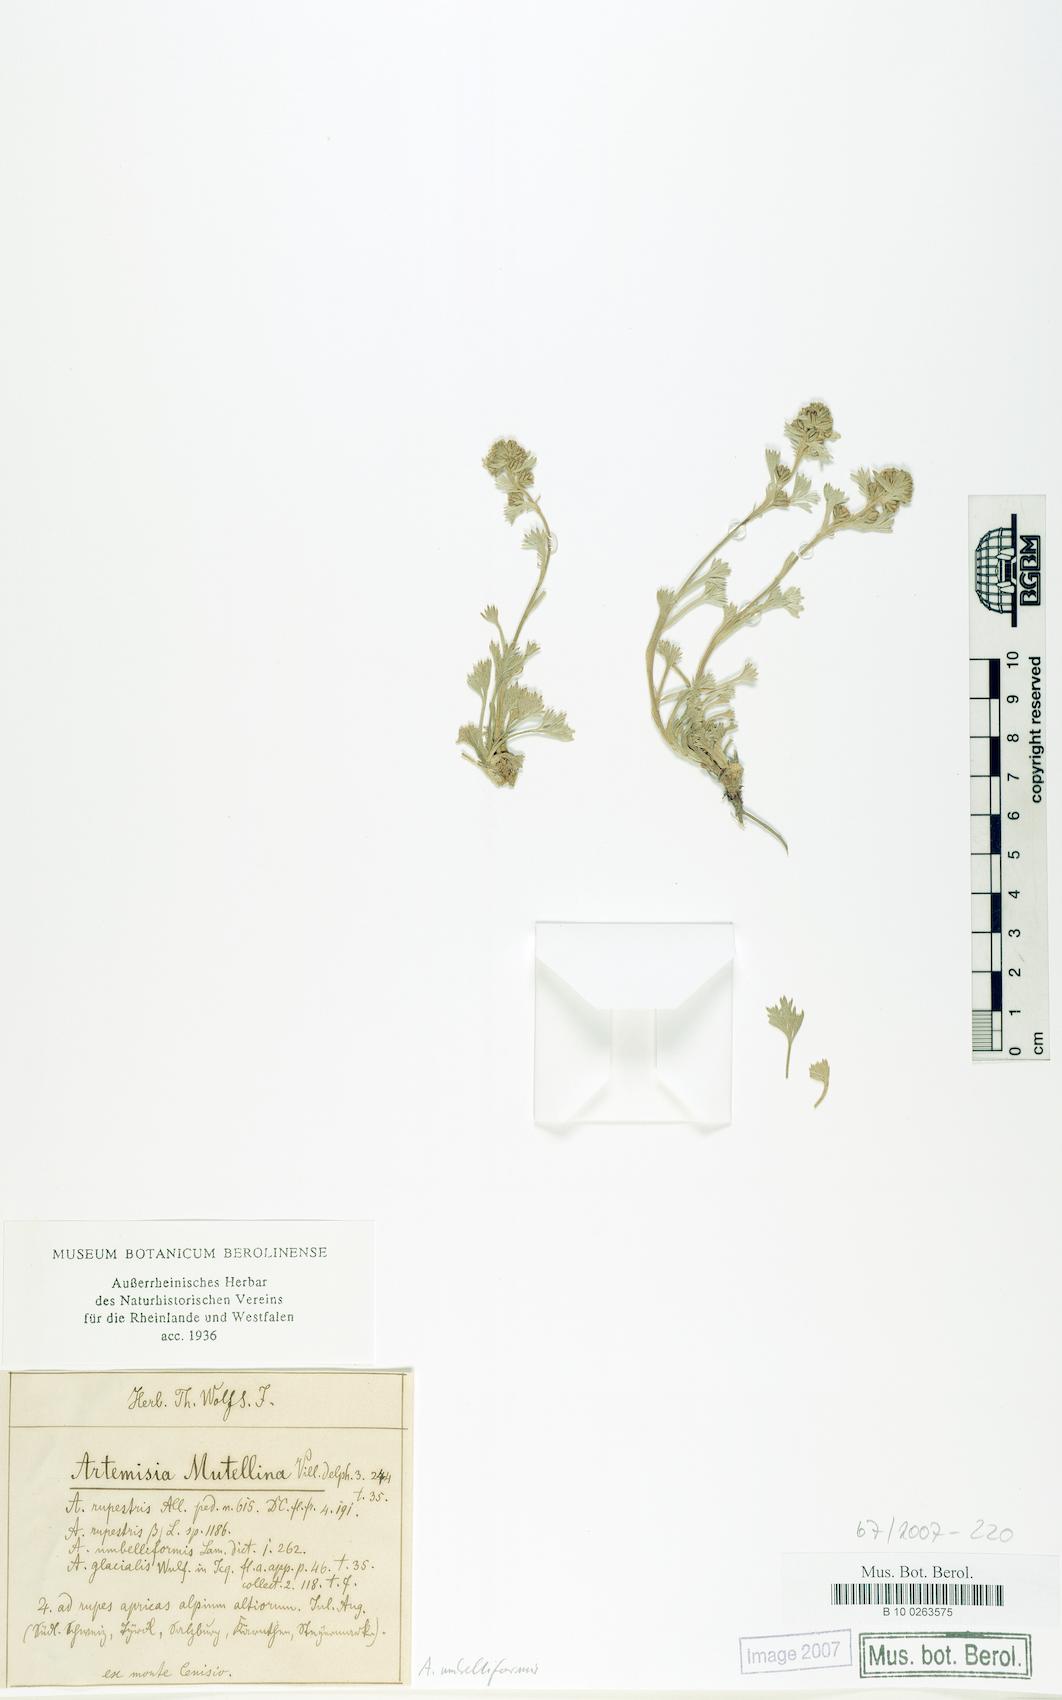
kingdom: Plantae
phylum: Tracheophyta
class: Magnoliopsida
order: Asterales
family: Asteraceae
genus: Artemisia
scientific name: Artemisia umbelliformis
